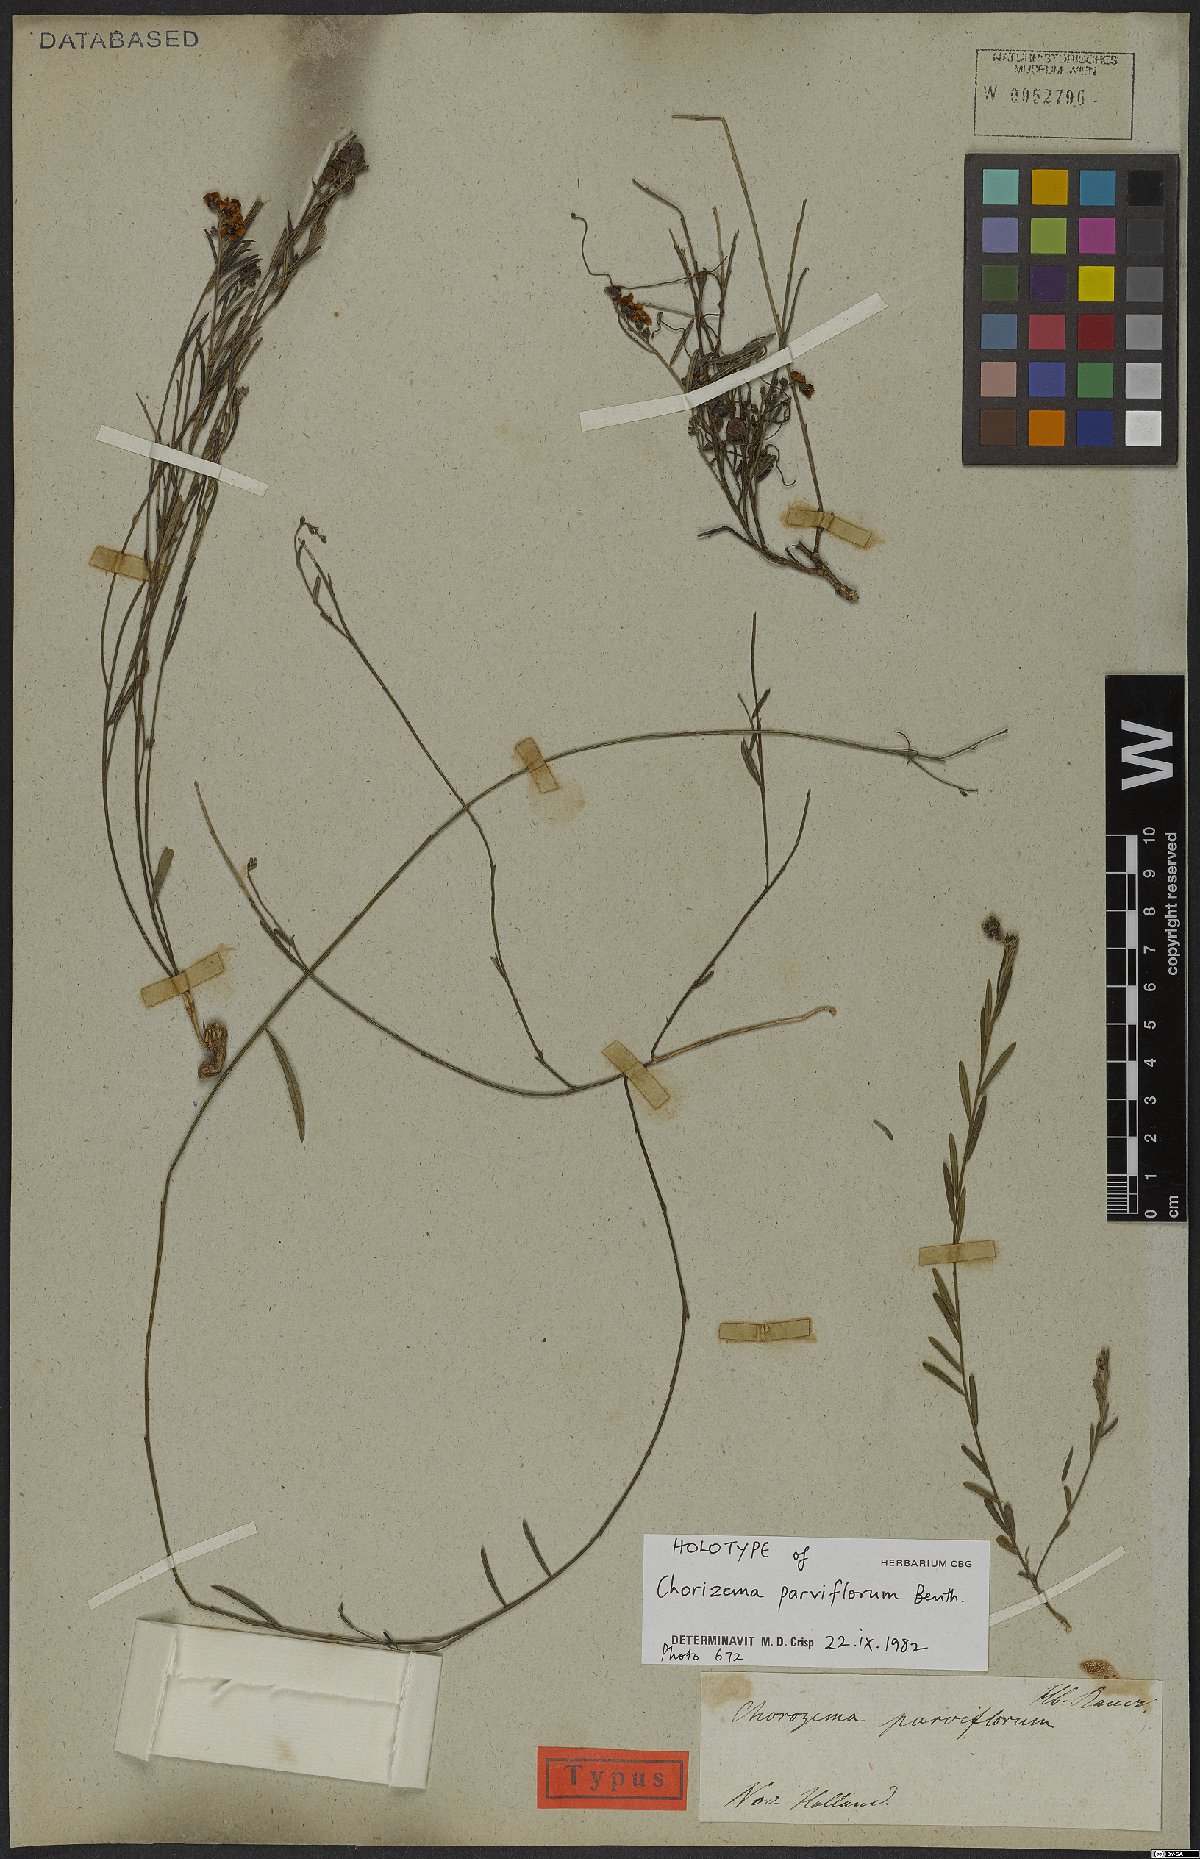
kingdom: Plantae
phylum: Tracheophyta
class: Magnoliopsida
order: Fabales
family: Fabaceae
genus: Chorizema
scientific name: Chorizema parviflorum
